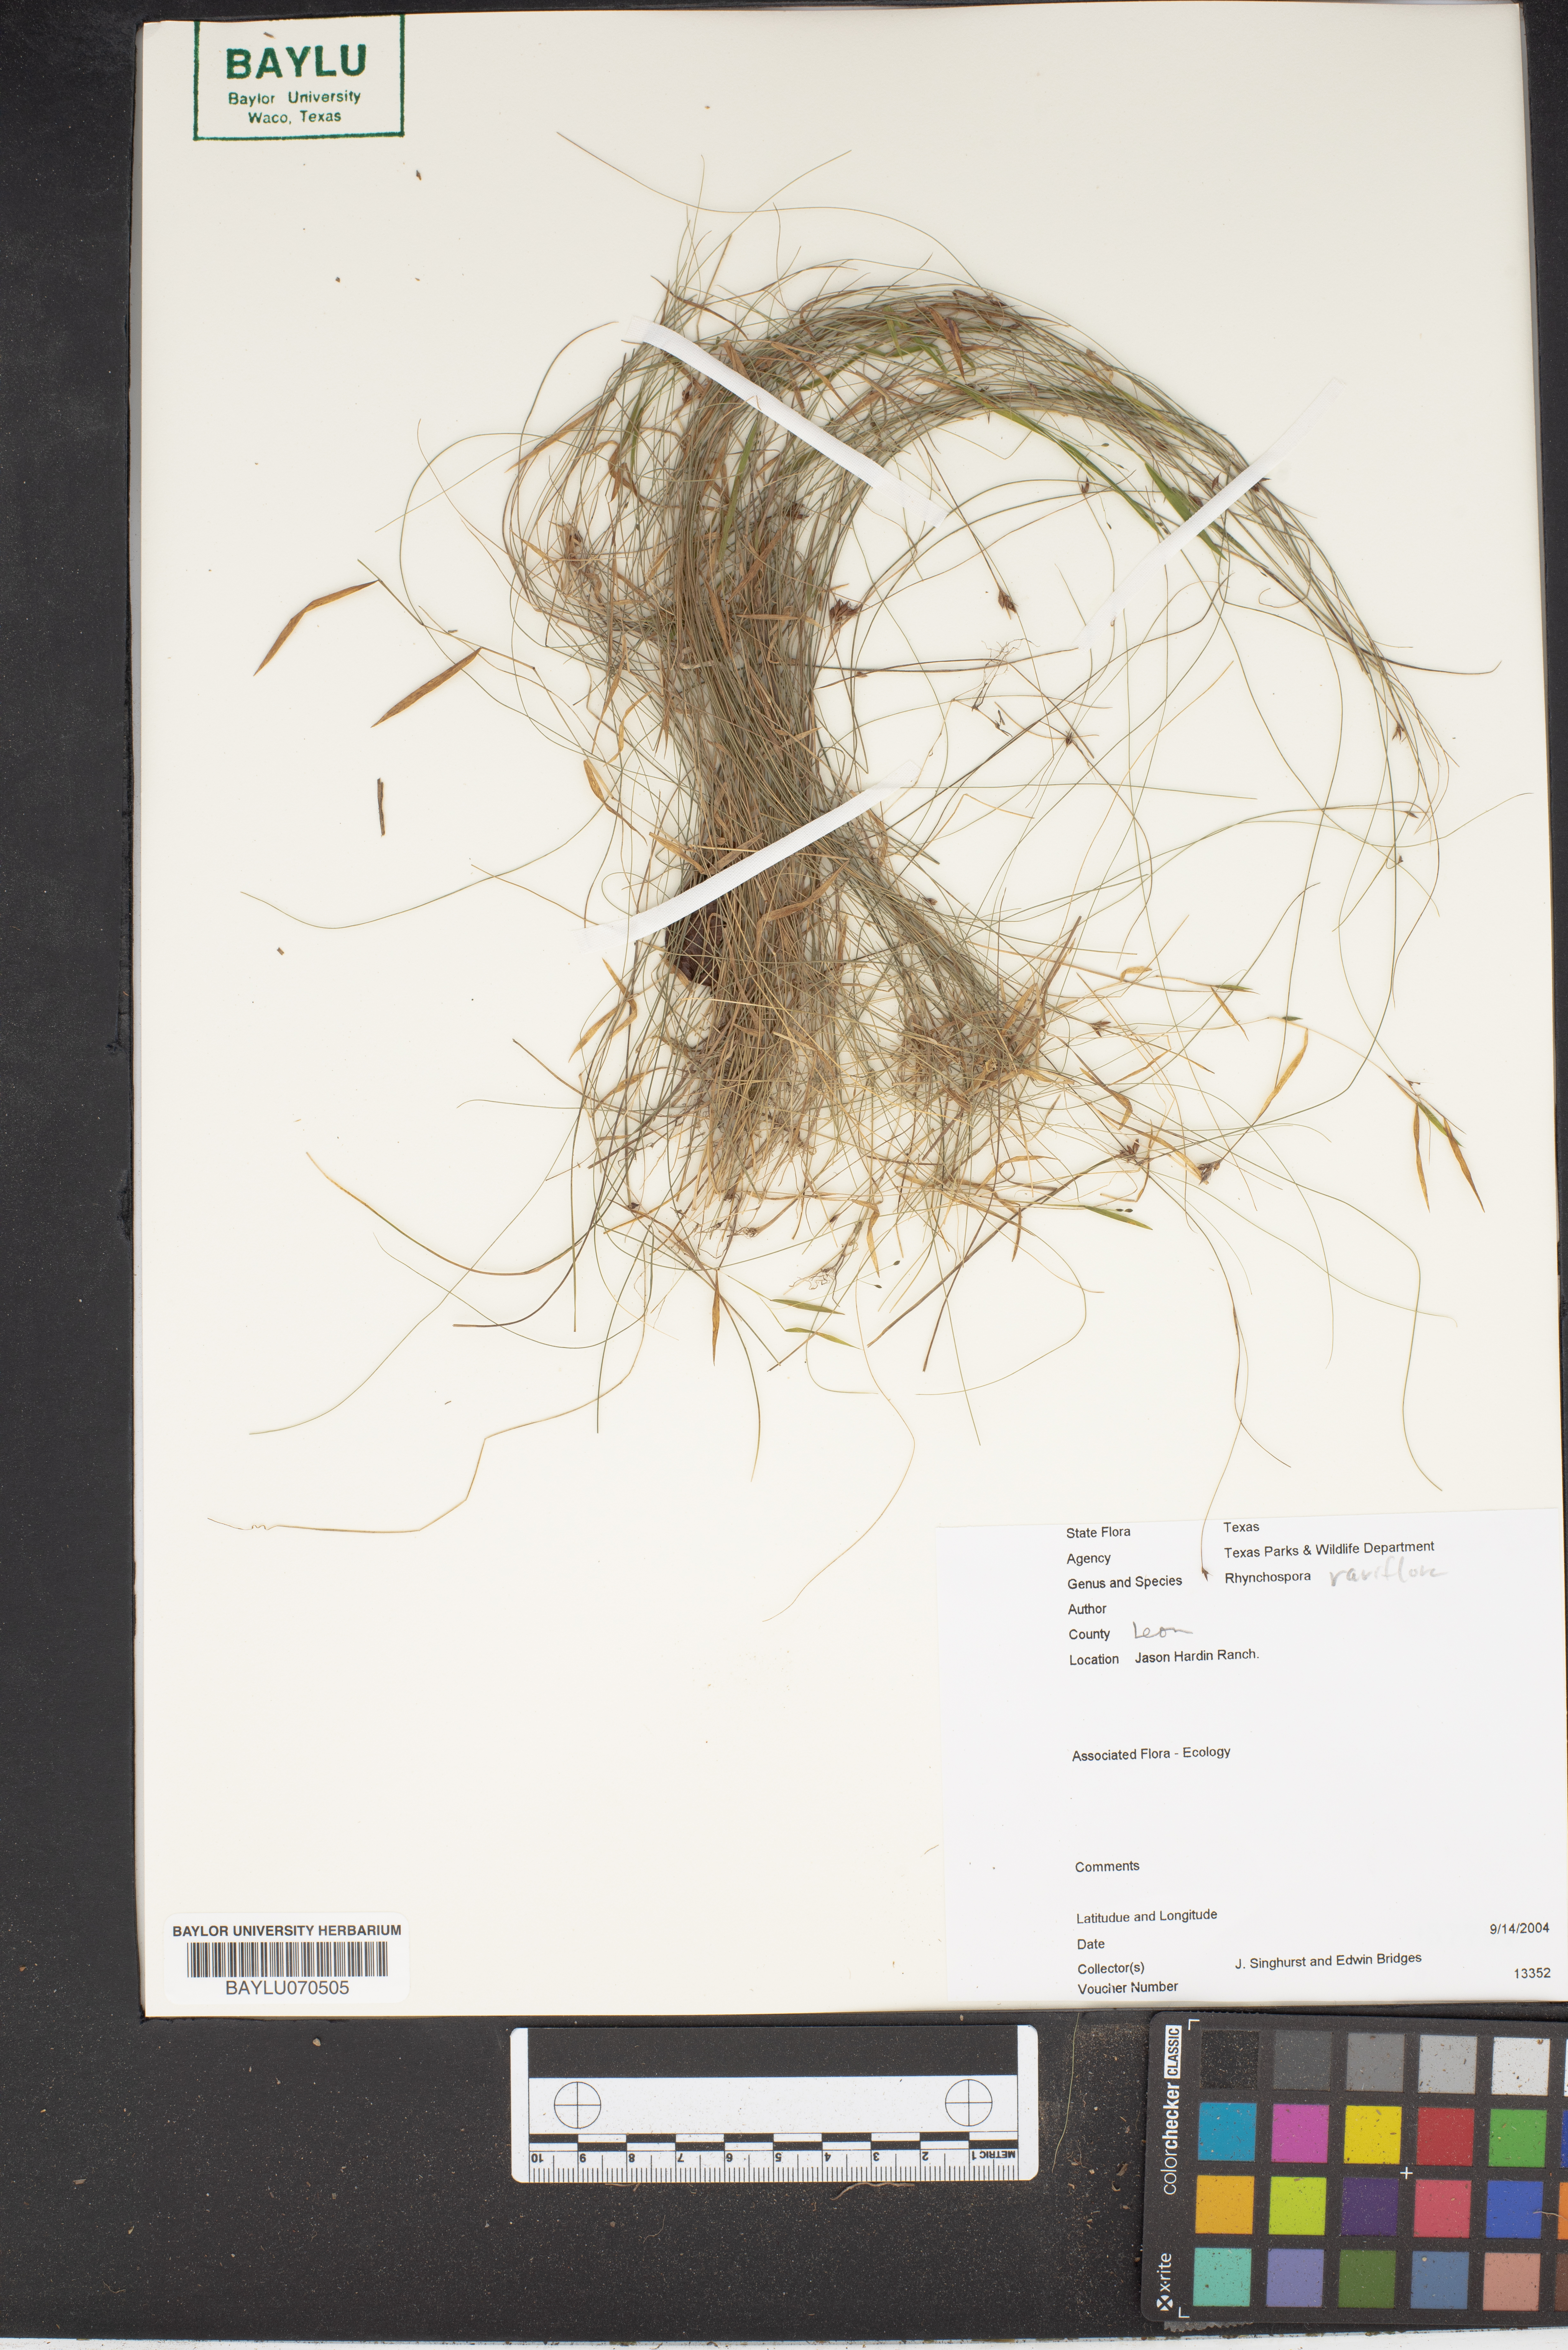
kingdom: Plantae
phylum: Tracheophyta
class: Liliopsida
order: Poales
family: Cyperaceae
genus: Rhynchospora
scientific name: Rhynchospora rariflora
